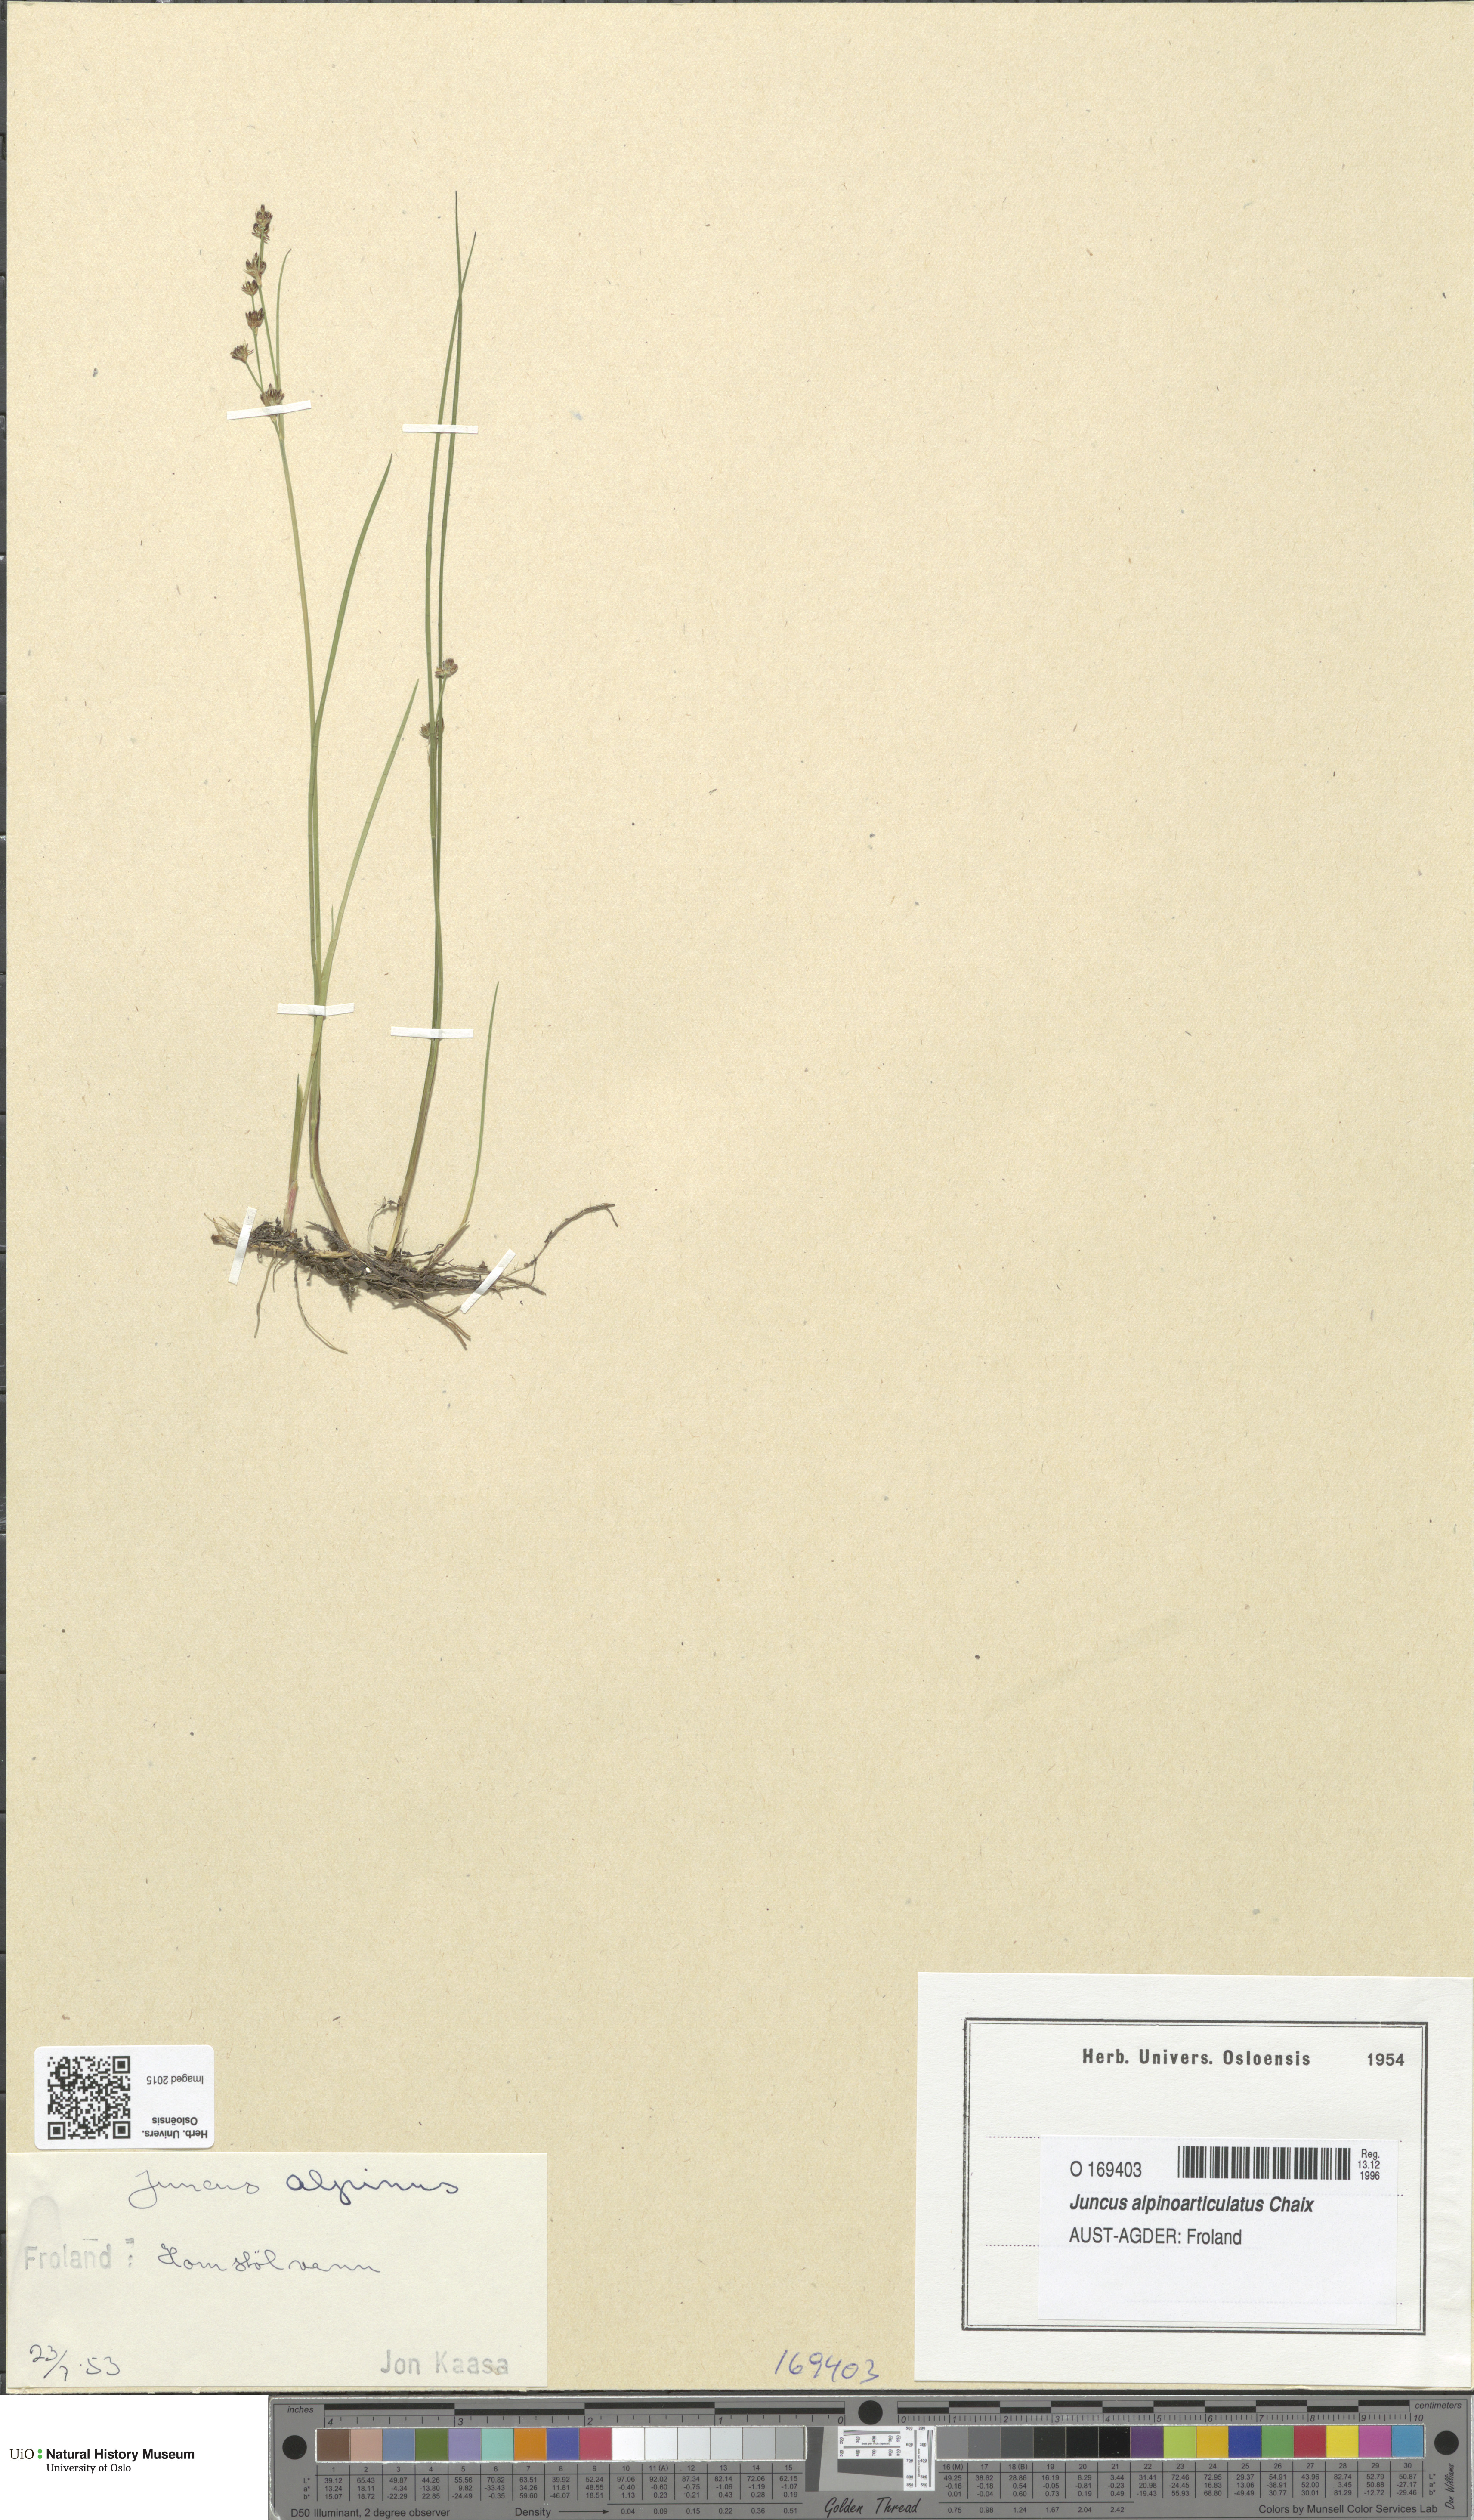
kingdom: Plantae
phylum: Tracheophyta
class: Liliopsida
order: Poales
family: Juncaceae
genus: Juncus
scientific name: Juncus alpinoarticulatus
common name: Alpine rush
